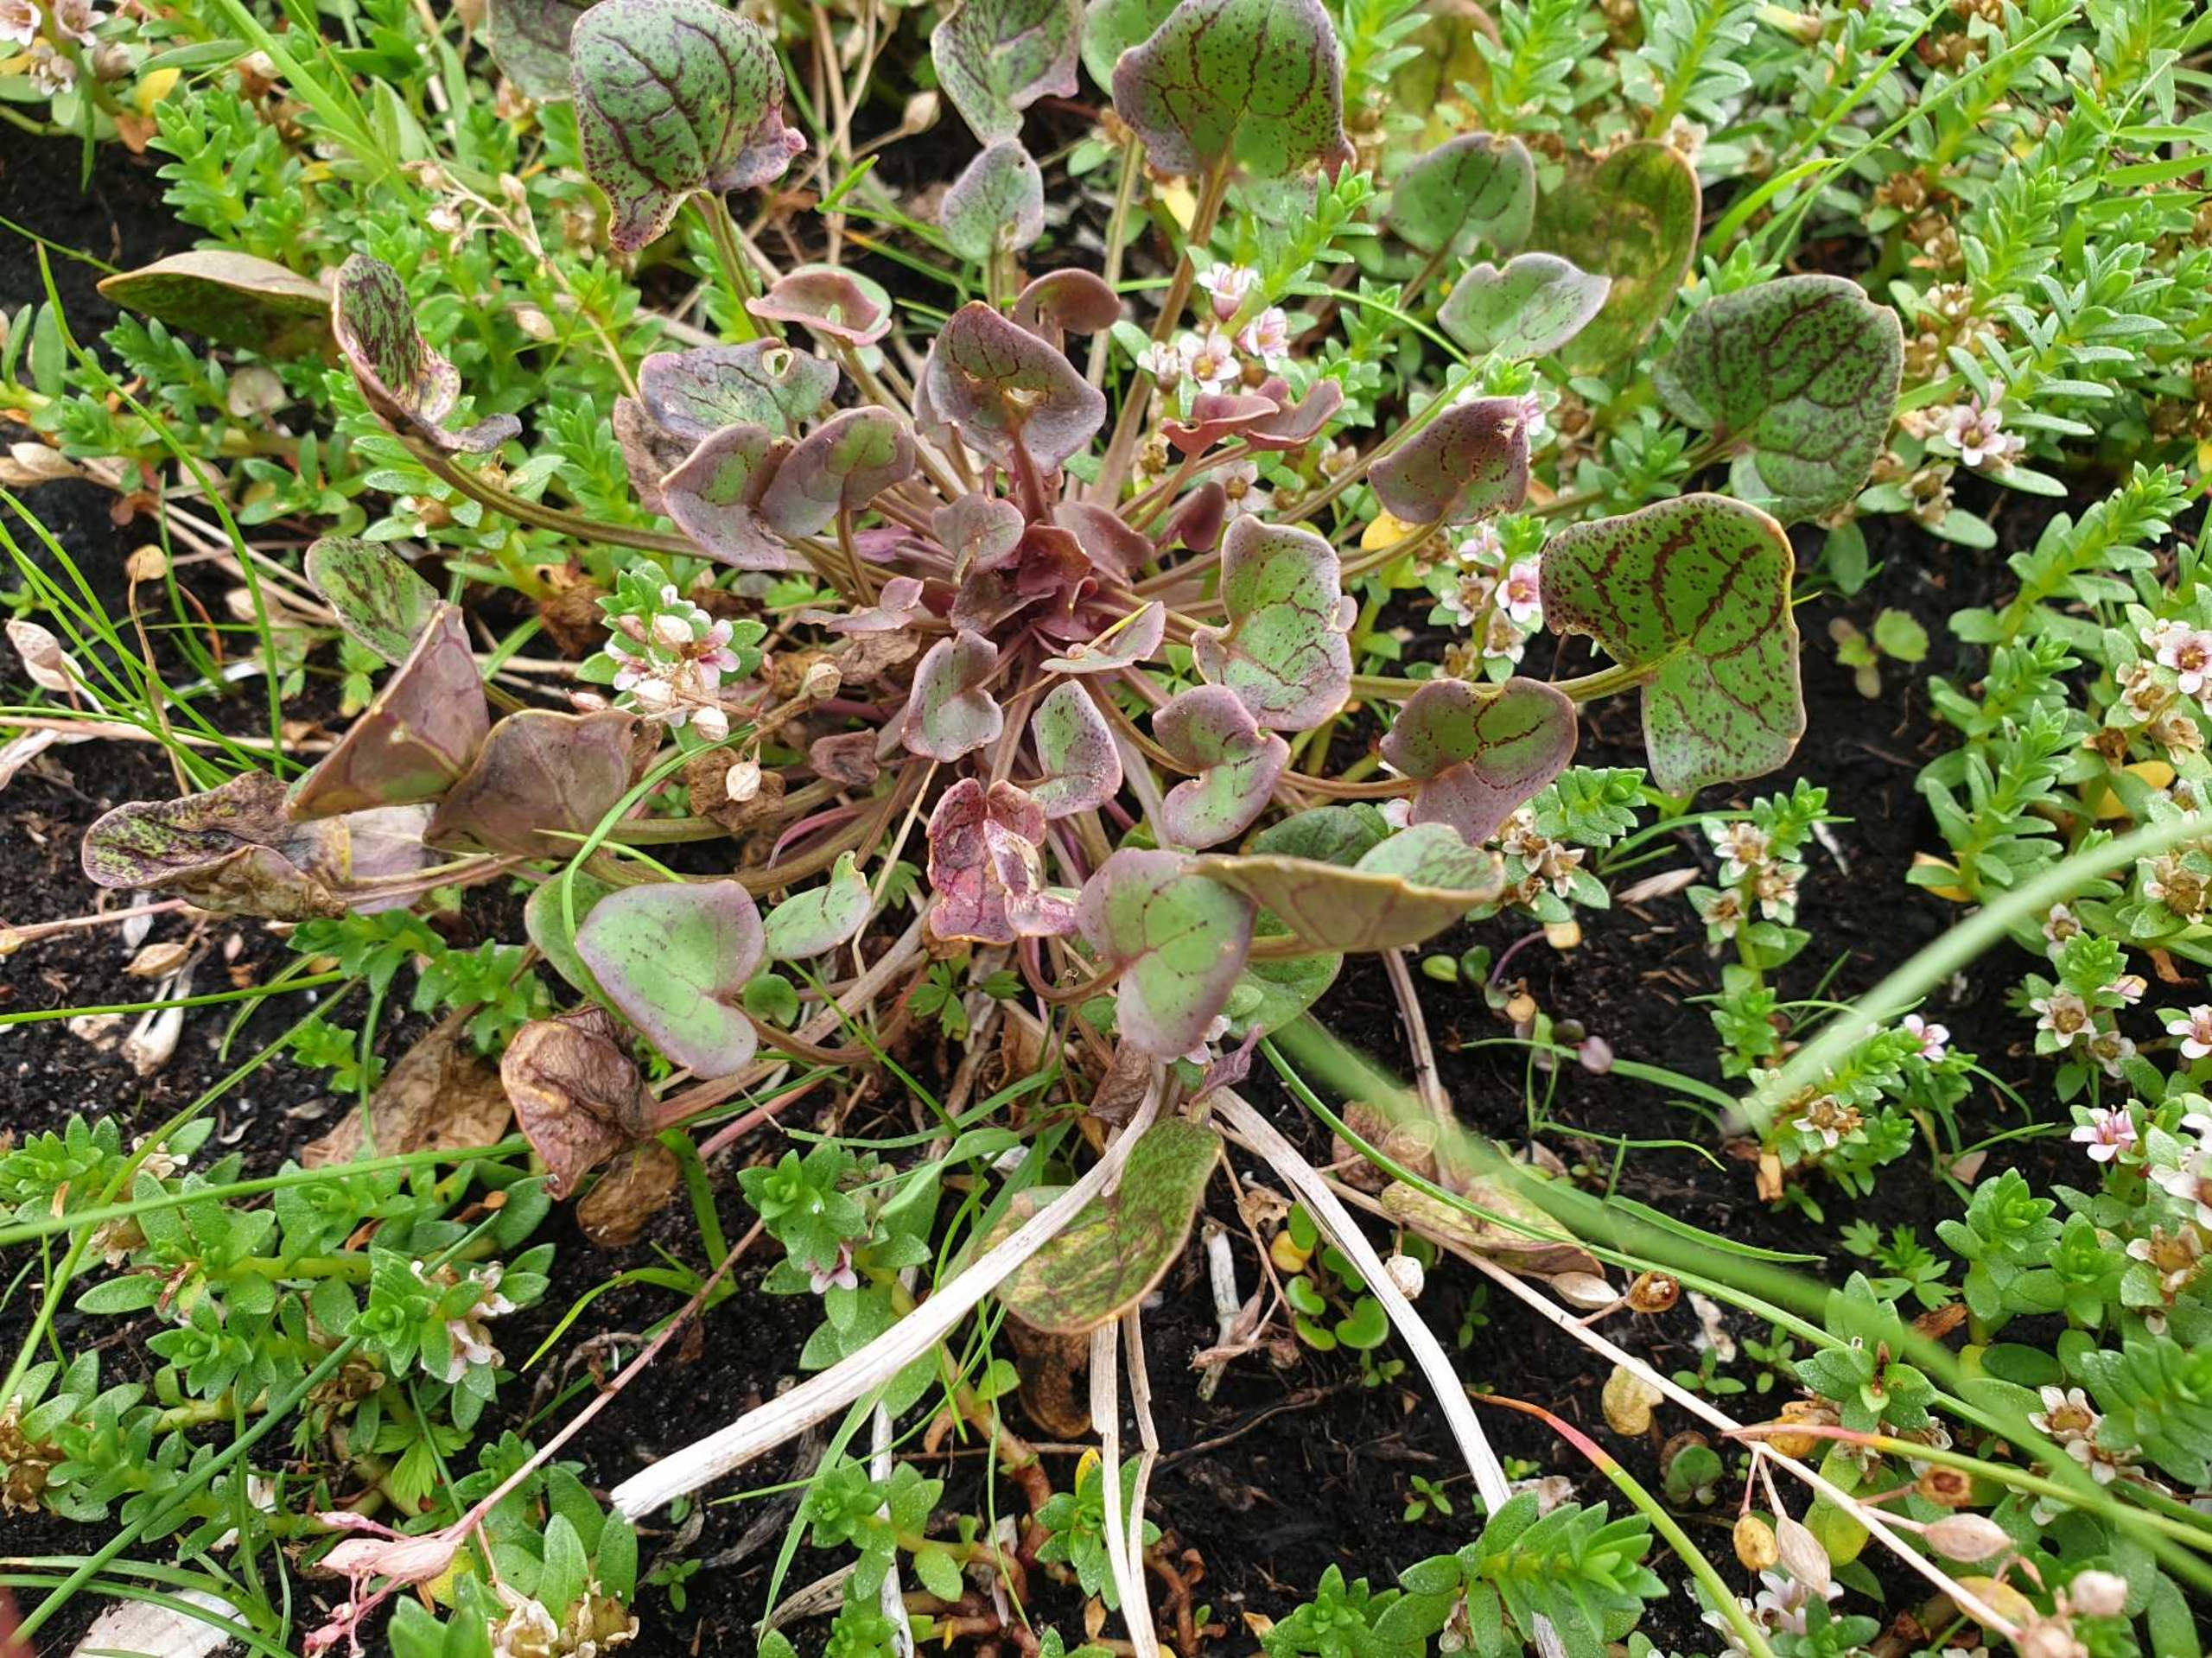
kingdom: Plantae
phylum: Tracheophyta
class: Magnoliopsida
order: Brassicales
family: Brassicaceae
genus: Cochlearia
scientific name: Cochlearia officinalis
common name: Læge-kokleare
